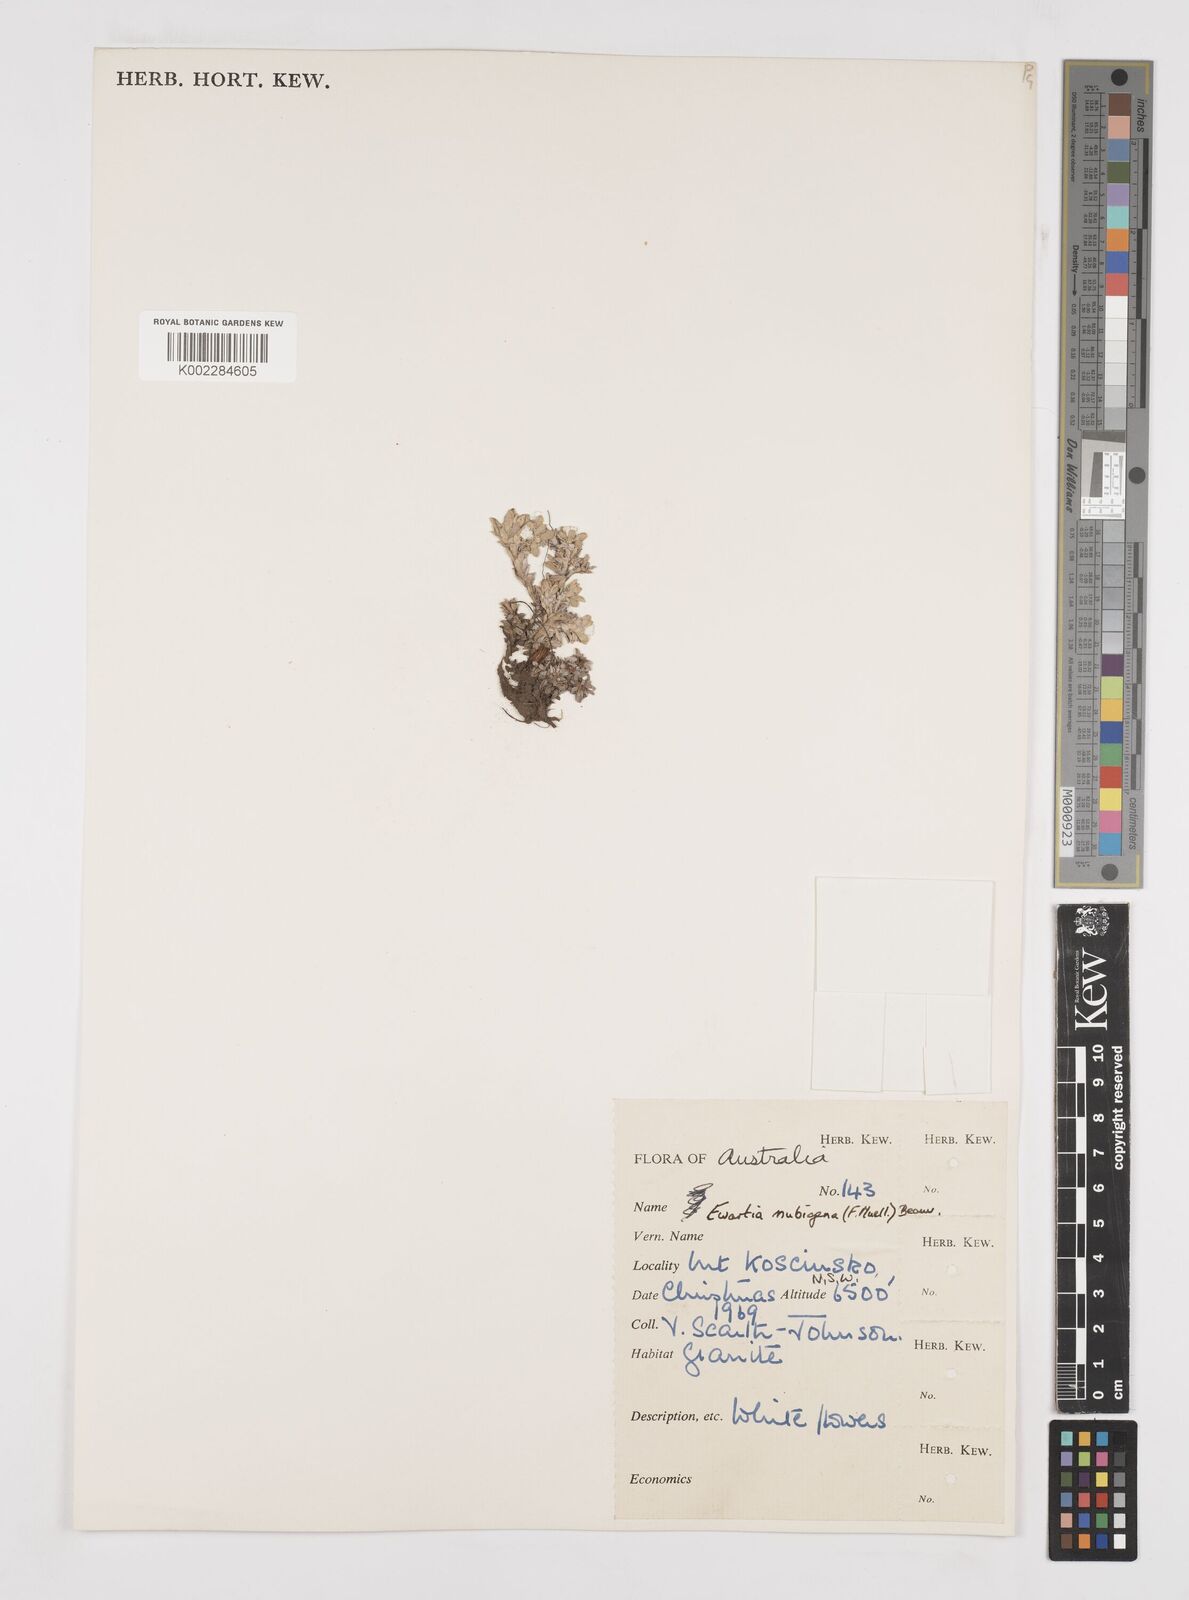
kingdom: Plantae
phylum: Tracheophyta
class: Magnoliopsida
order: Asterales
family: Asteraceae
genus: Ewartia
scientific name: Ewartia nubigena
